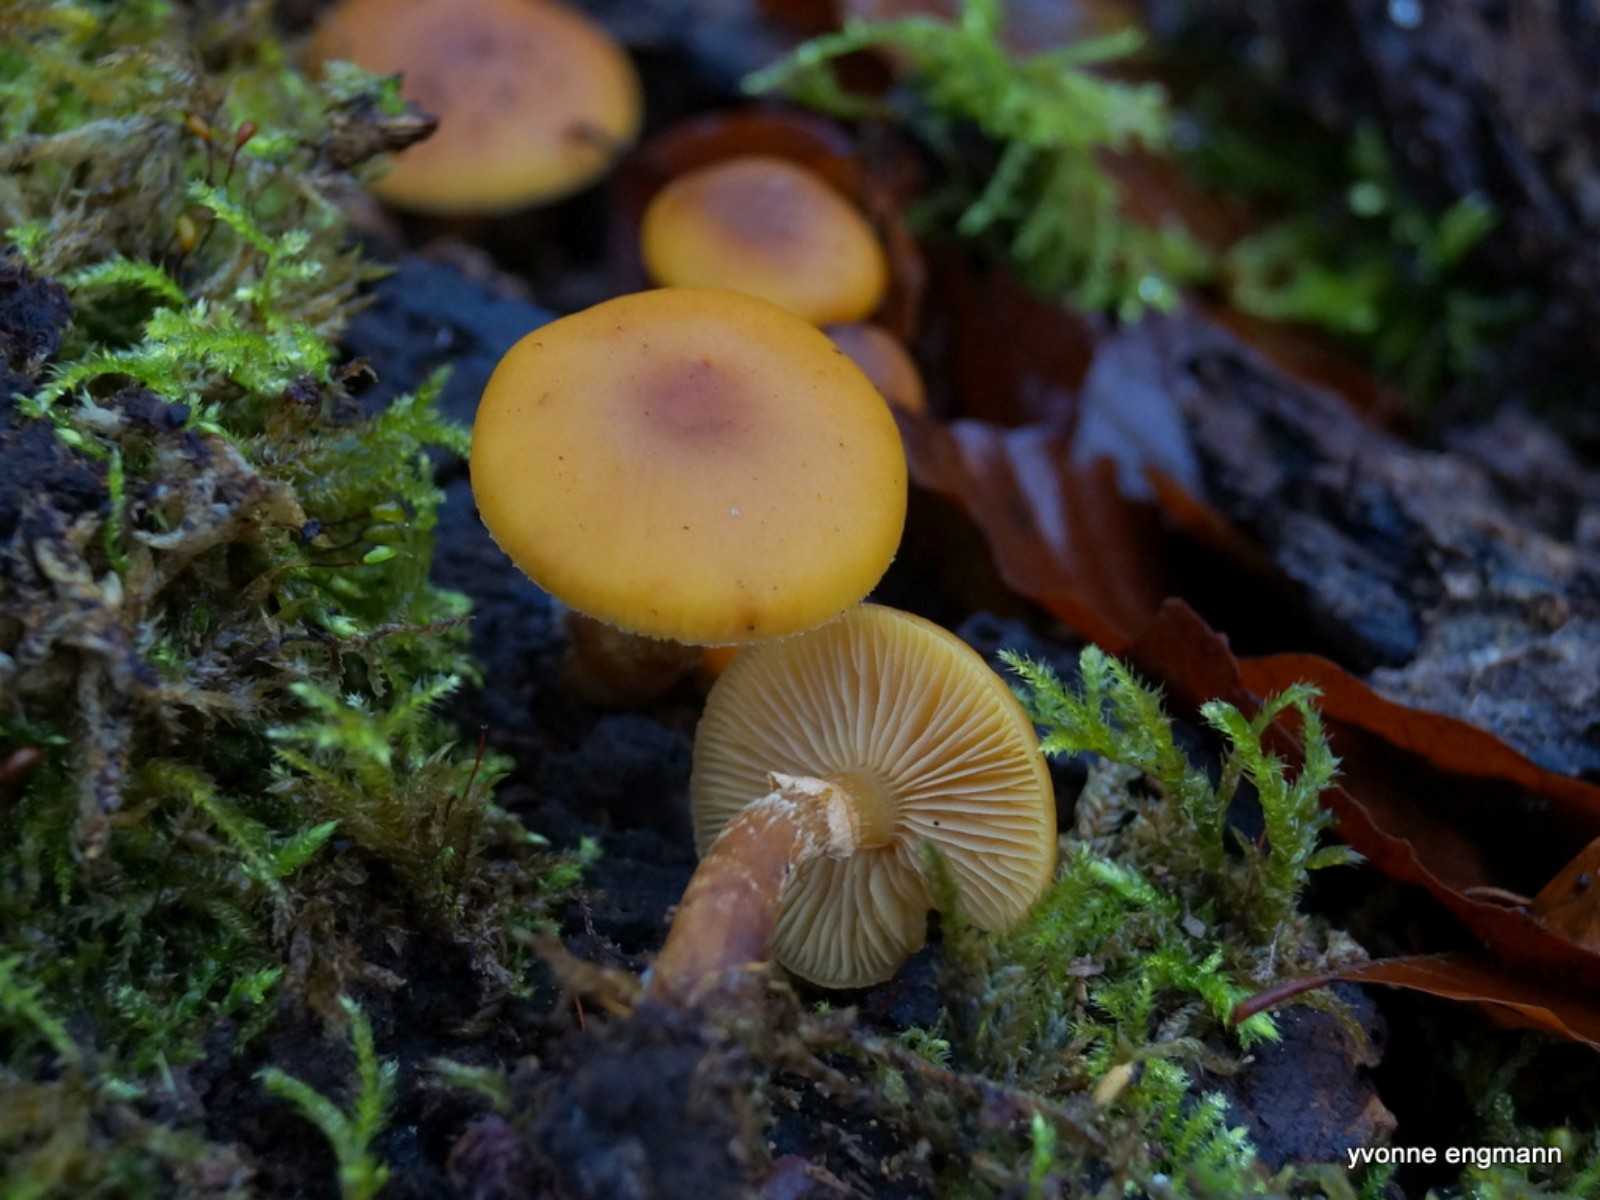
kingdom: Fungi
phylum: Basidiomycota
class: Agaricomycetes
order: Agaricales
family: Hymenogastraceae
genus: Galerina
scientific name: Galerina marginata
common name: randbæltet hjelmhat
